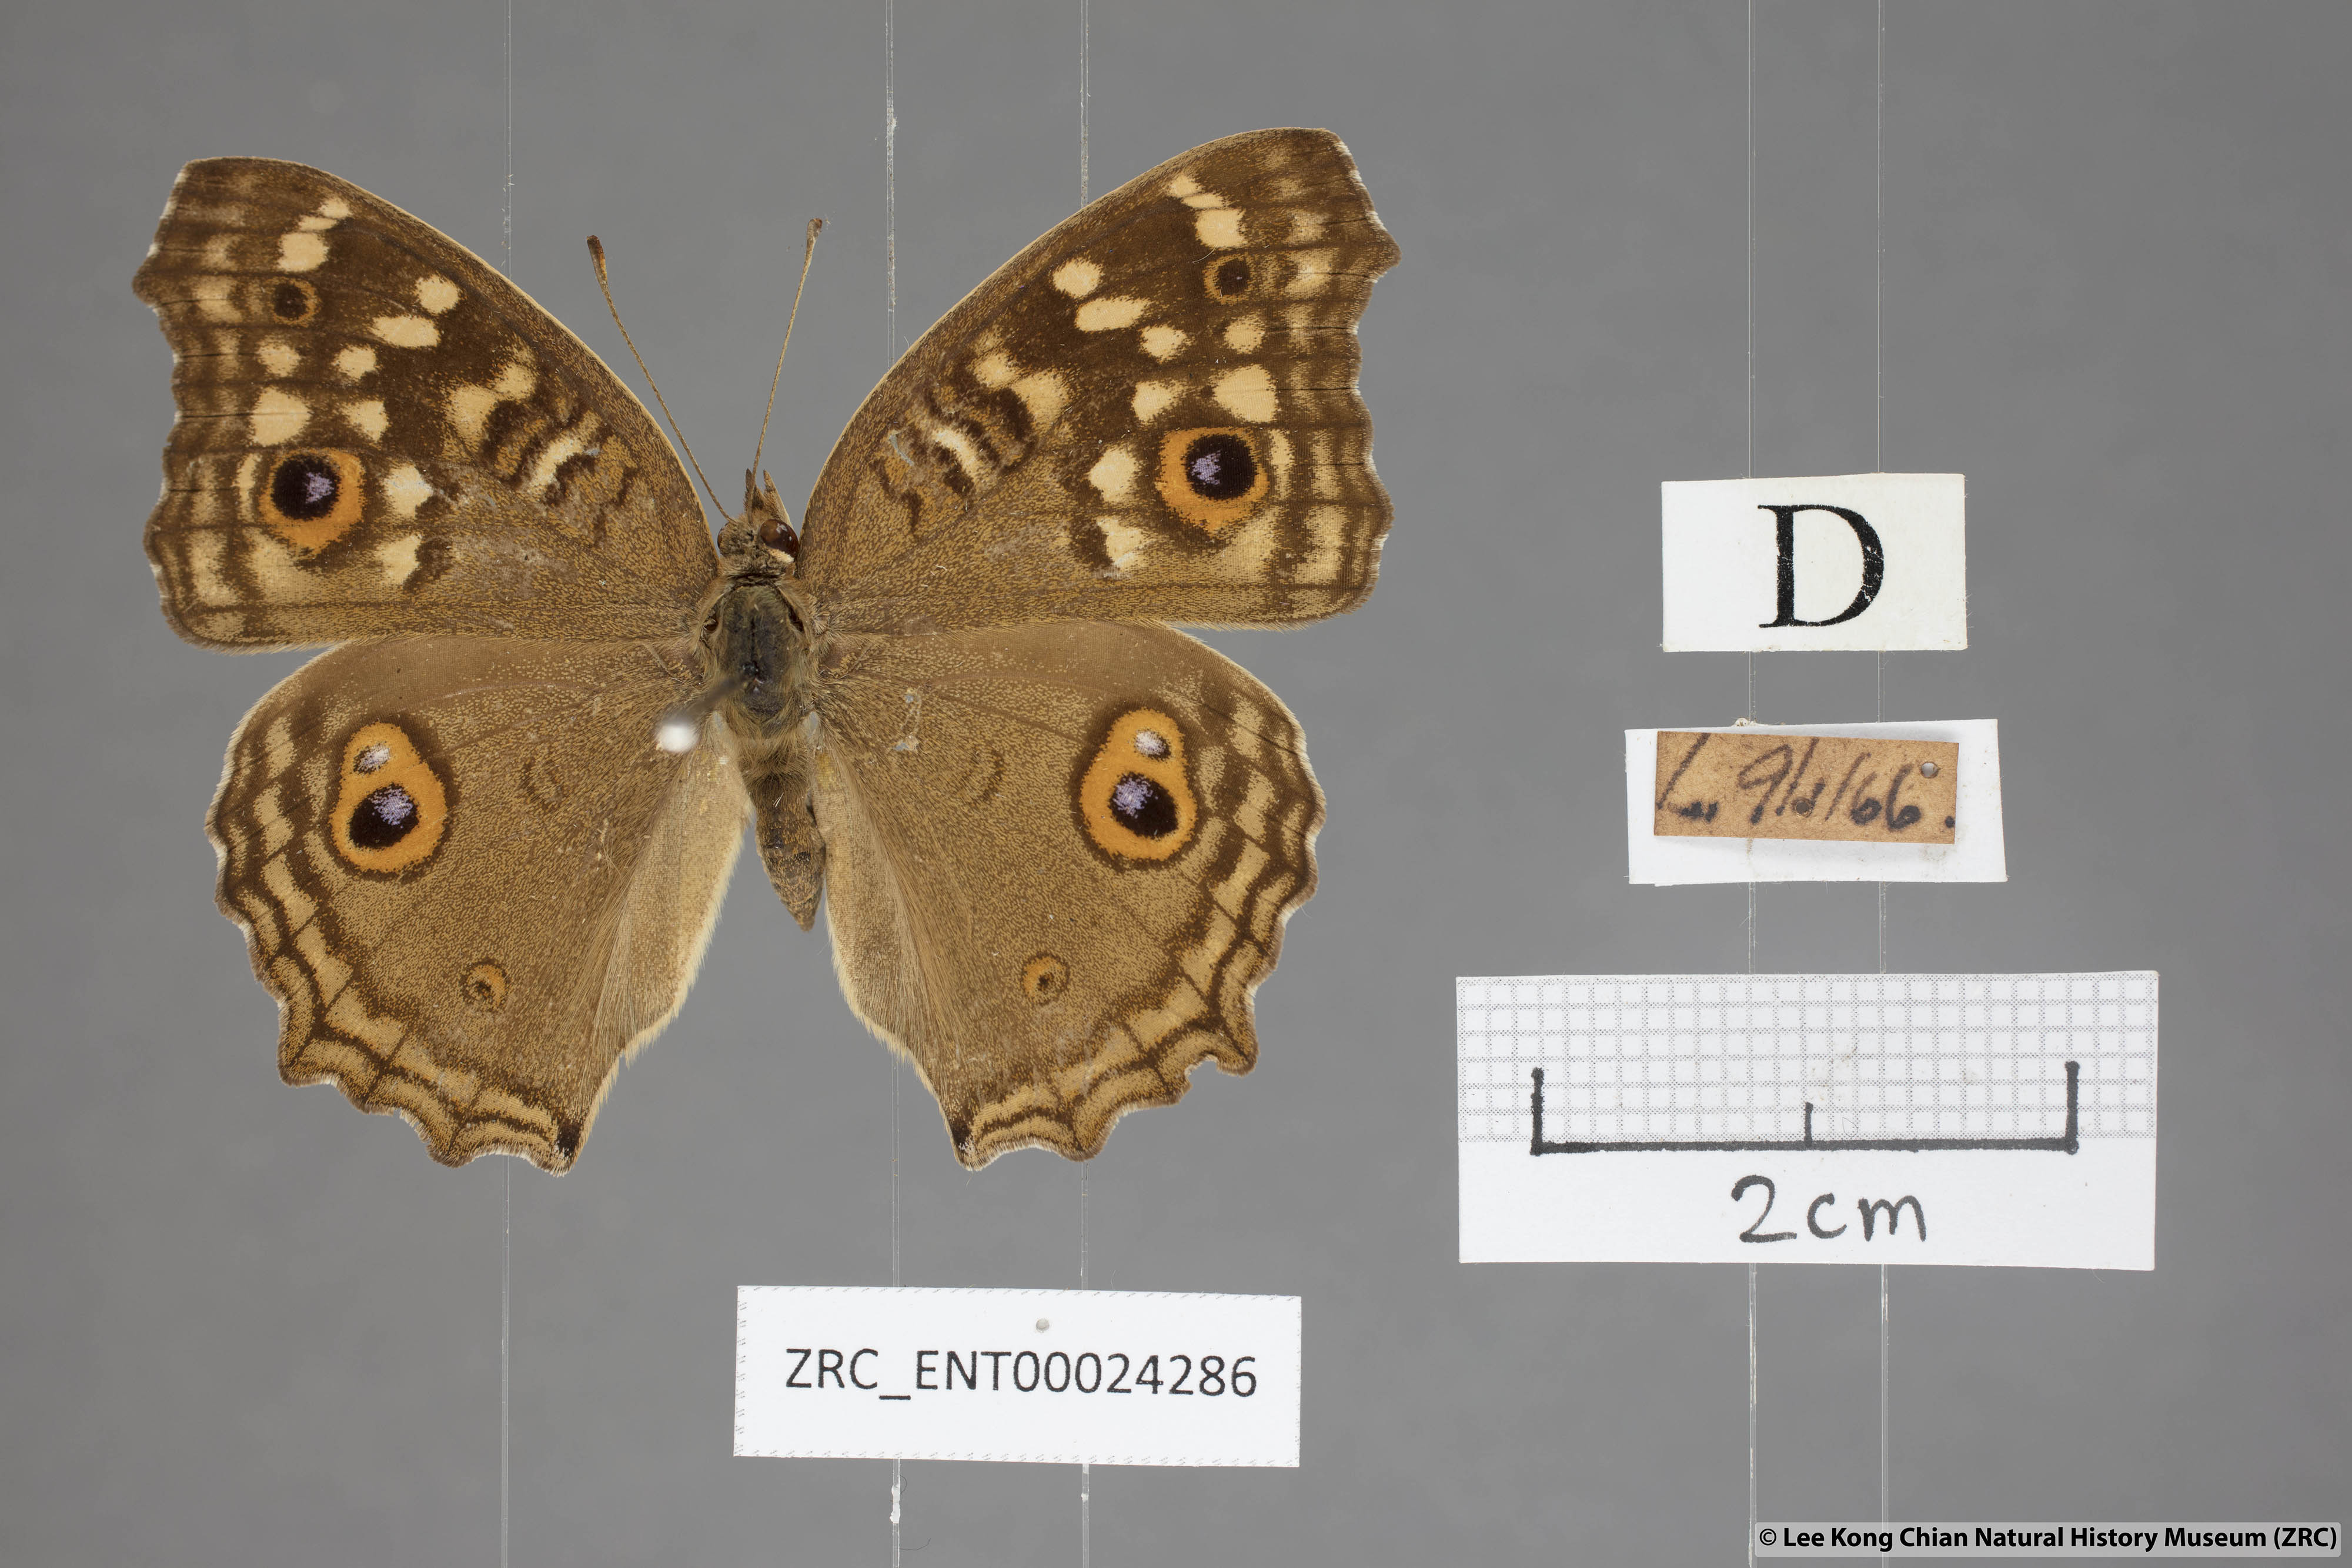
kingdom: Animalia
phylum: Arthropoda
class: Insecta
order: Lepidoptera
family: Nymphalidae
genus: Junonia
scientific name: Junonia lemonias
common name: Lemon pansy
